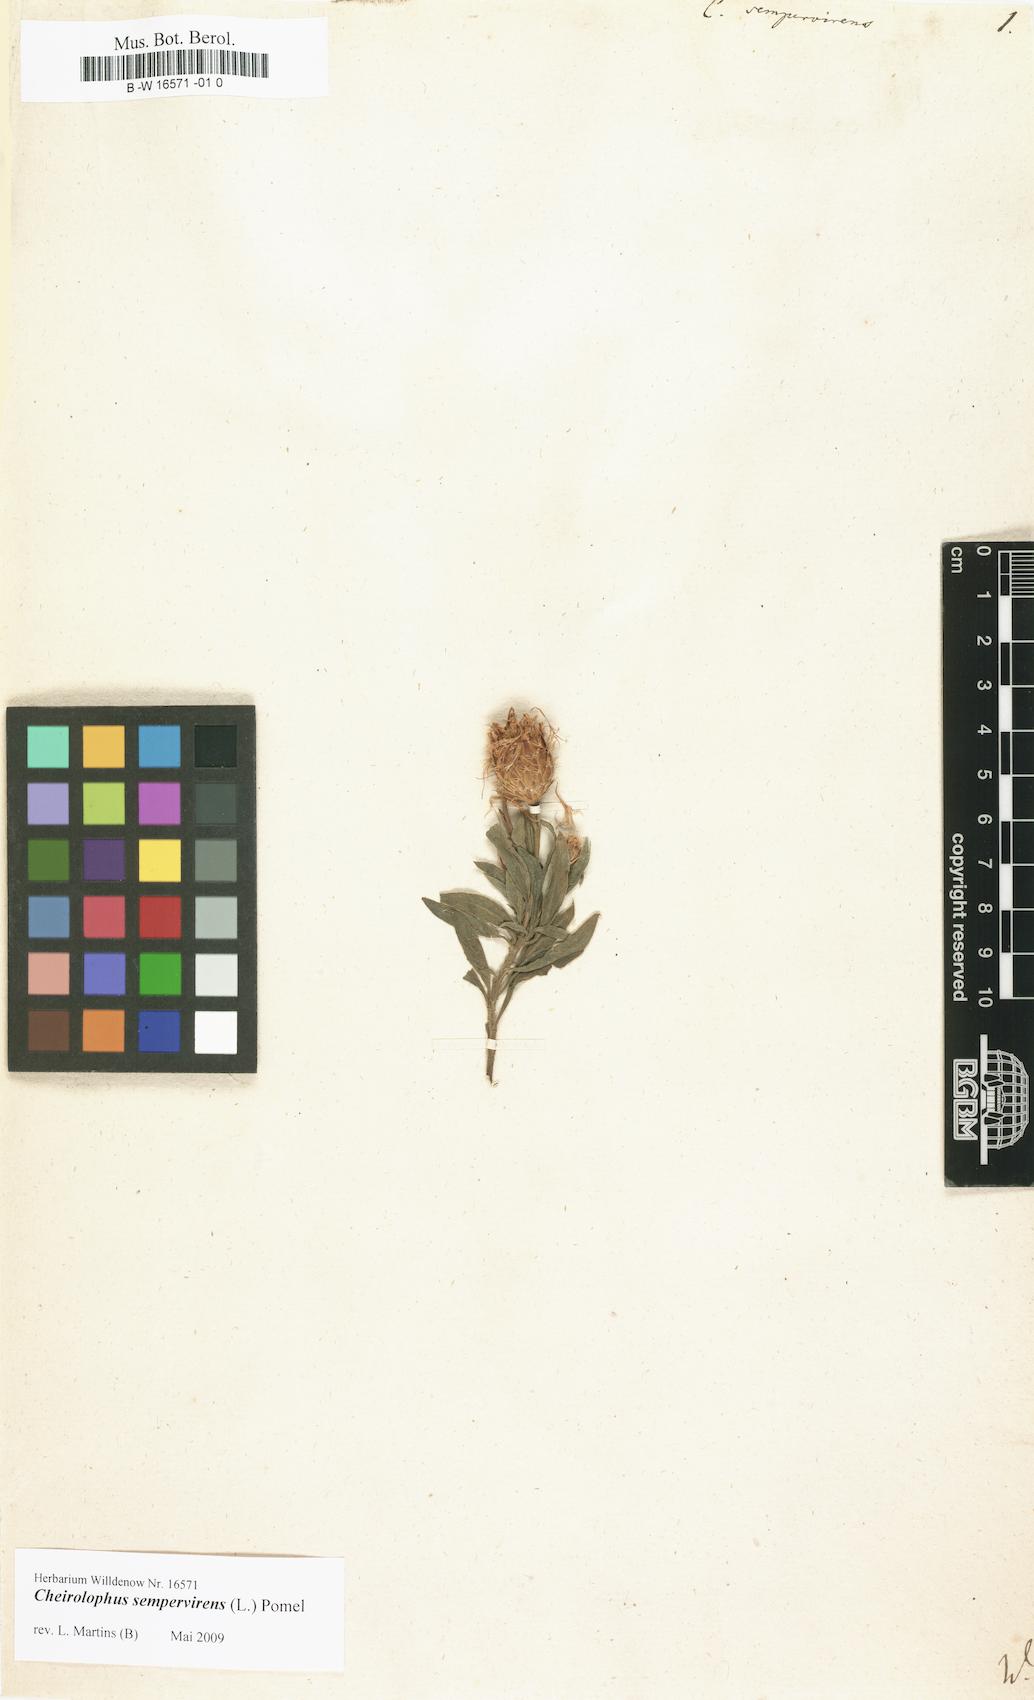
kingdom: Plantae
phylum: Tracheophyta
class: Magnoliopsida
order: Asterales
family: Asteraceae
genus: Cheirolophus
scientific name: Cheirolophus sempervirens
